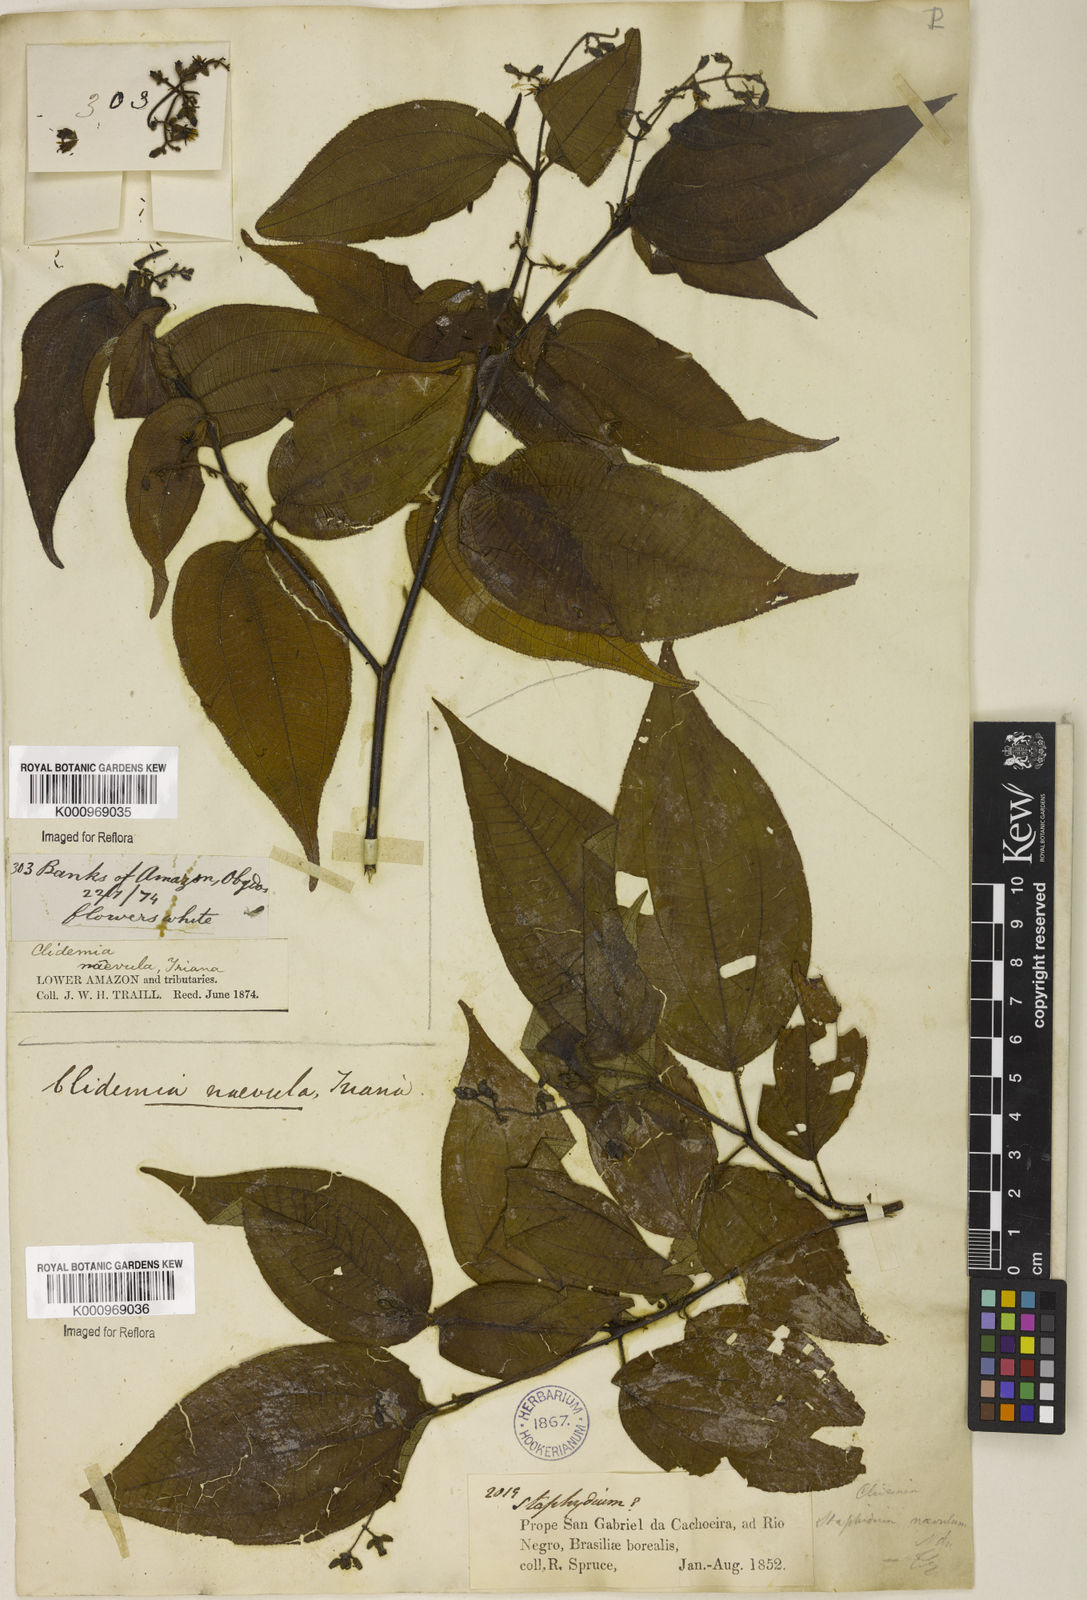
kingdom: Plantae
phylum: Tracheophyta
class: Magnoliopsida
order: Myrtales
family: Melastomataceae
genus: Miconia
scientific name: Miconia heteroclita
